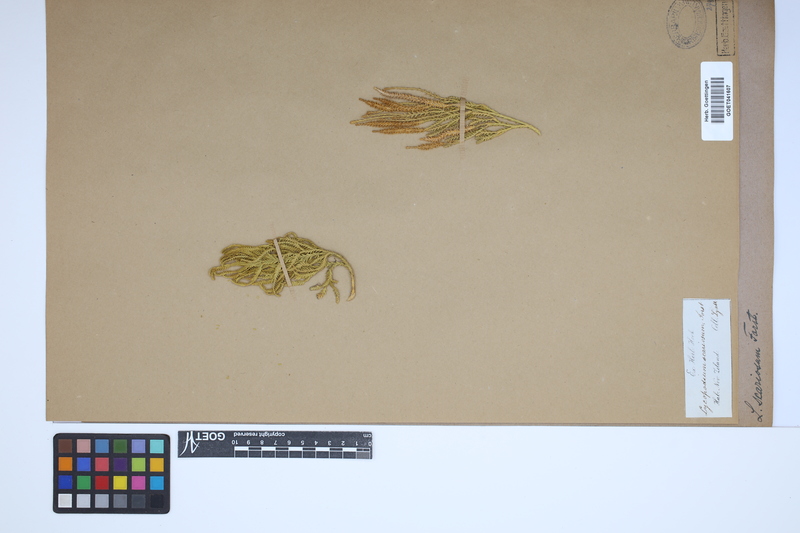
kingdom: Plantae
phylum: Tracheophyta
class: Lycopodiopsida
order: Lycopodiales
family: Lycopodiaceae
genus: Diphasium
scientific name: Diphasium scariosum
